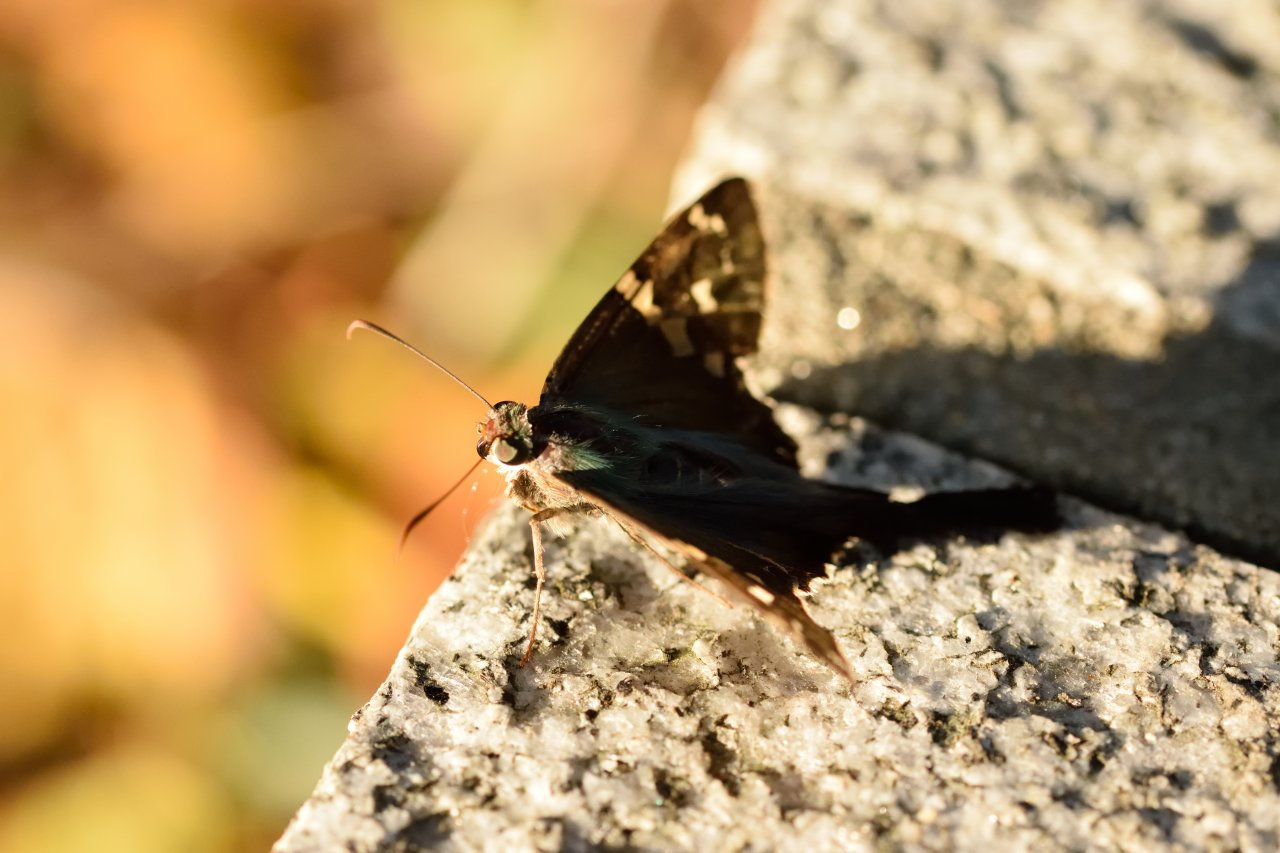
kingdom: Animalia
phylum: Arthropoda
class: Insecta
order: Lepidoptera
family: Hesperiidae
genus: Urbanus
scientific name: Urbanus proteus
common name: Long-tailed Skipper
